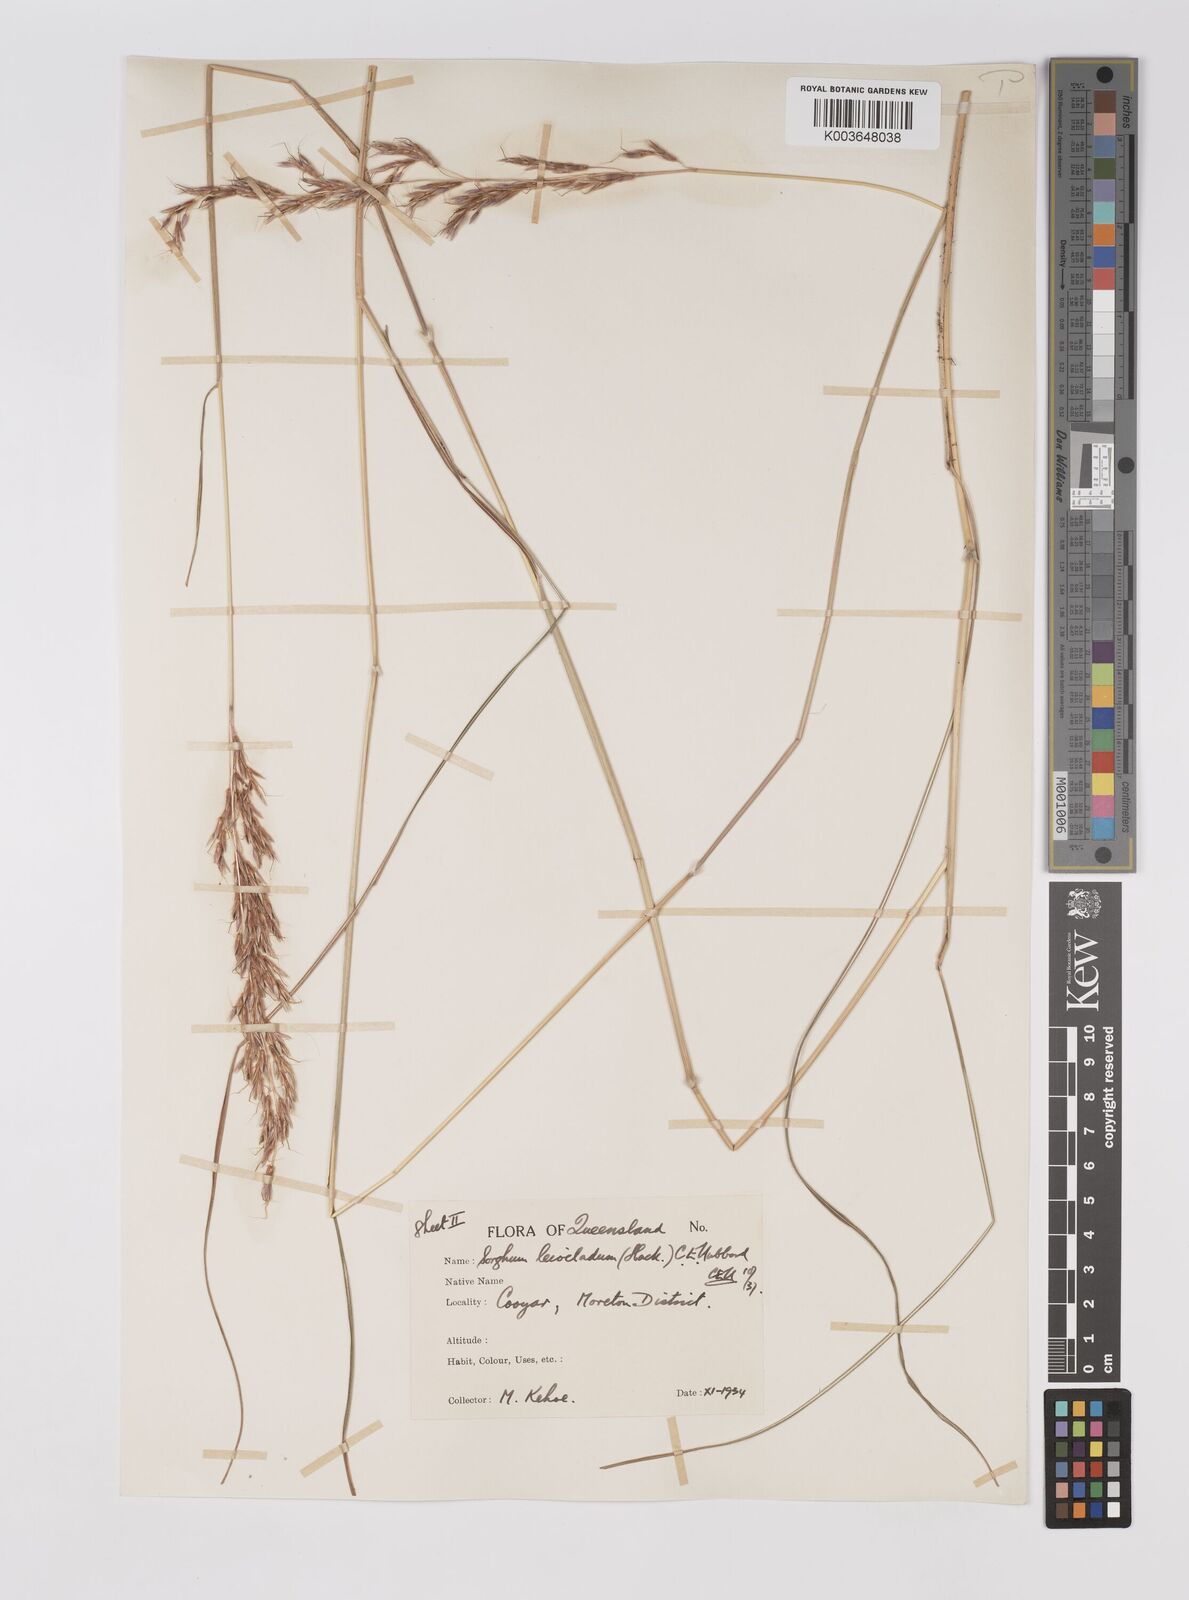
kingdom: Plantae
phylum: Tracheophyta
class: Liliopsida
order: Poales
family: Poaceae
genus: Sarga
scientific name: Sarga leioclada
